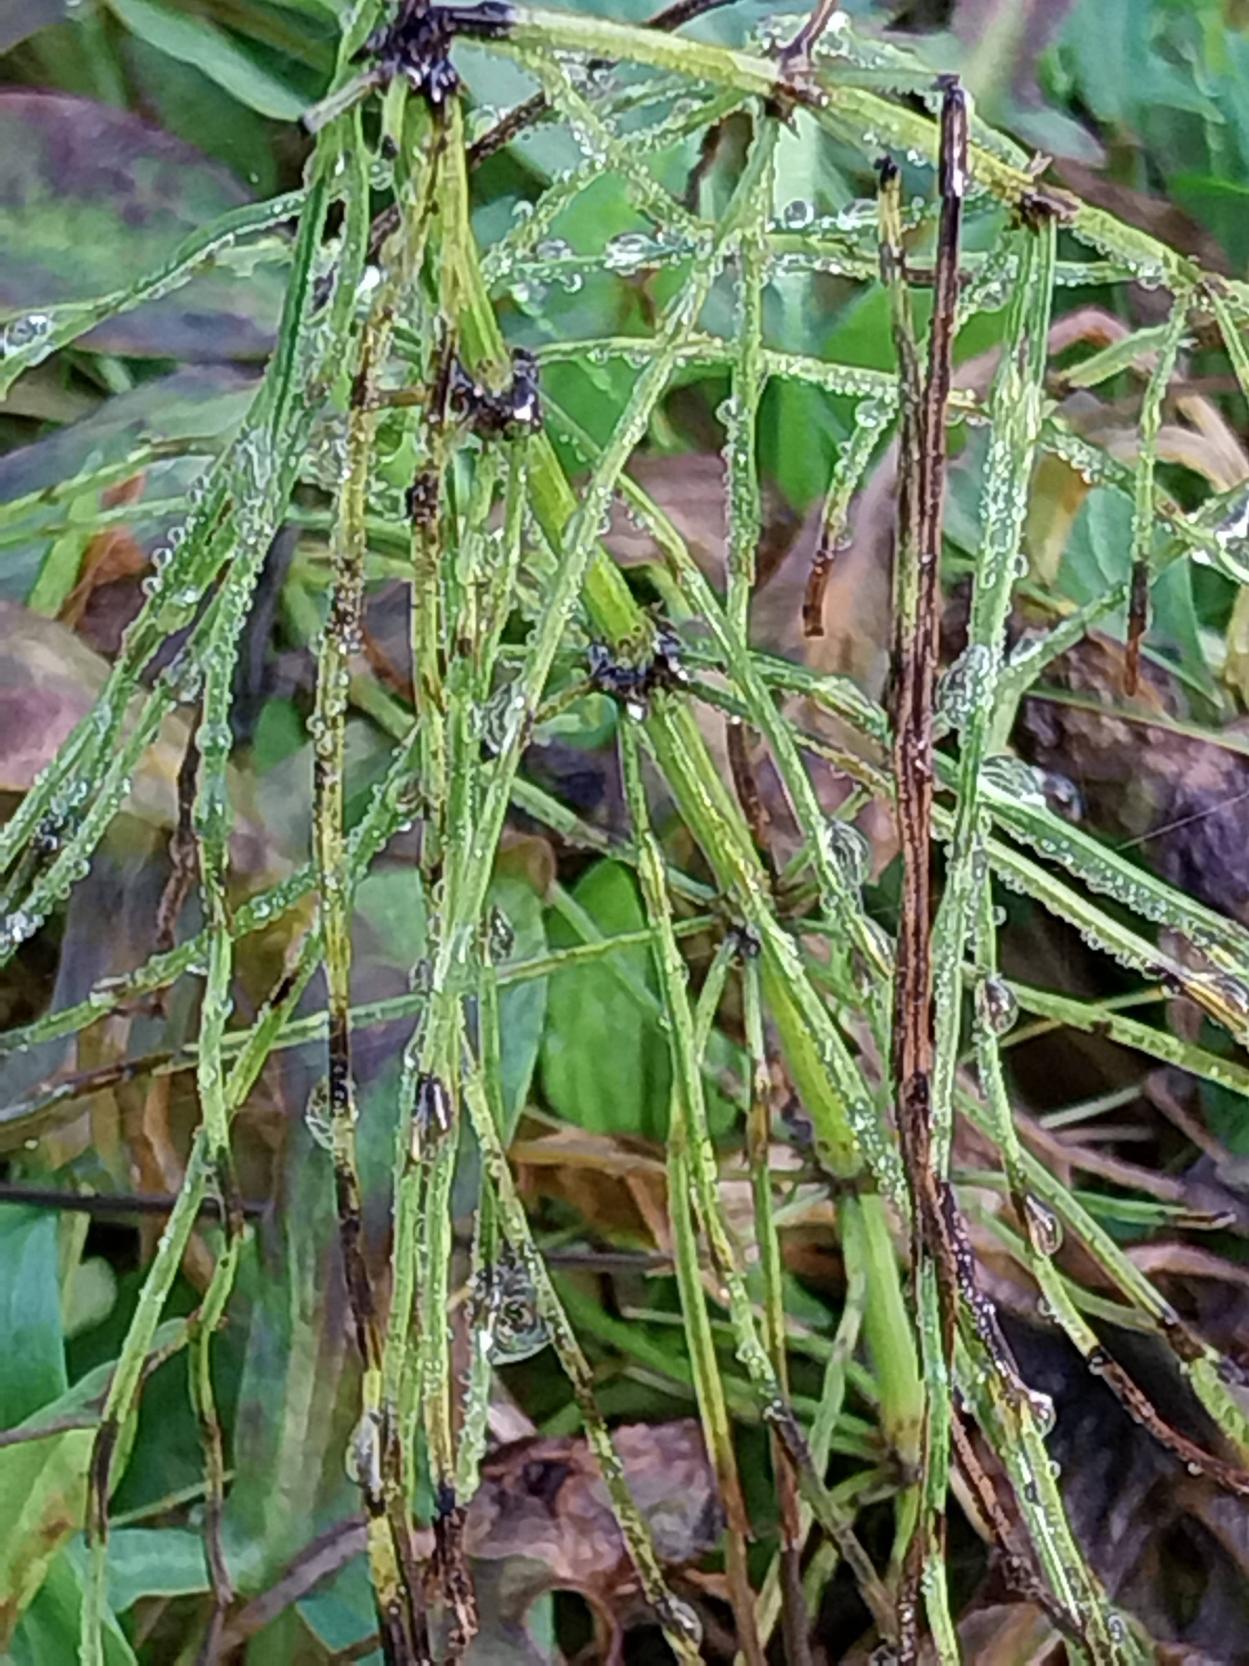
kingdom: Plantae
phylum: Tracheophyta
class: Polypodiopsida
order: Equisetales
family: Equisetaceae
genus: Equisetum
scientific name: Equisetum arvense
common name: Ager-padderok
